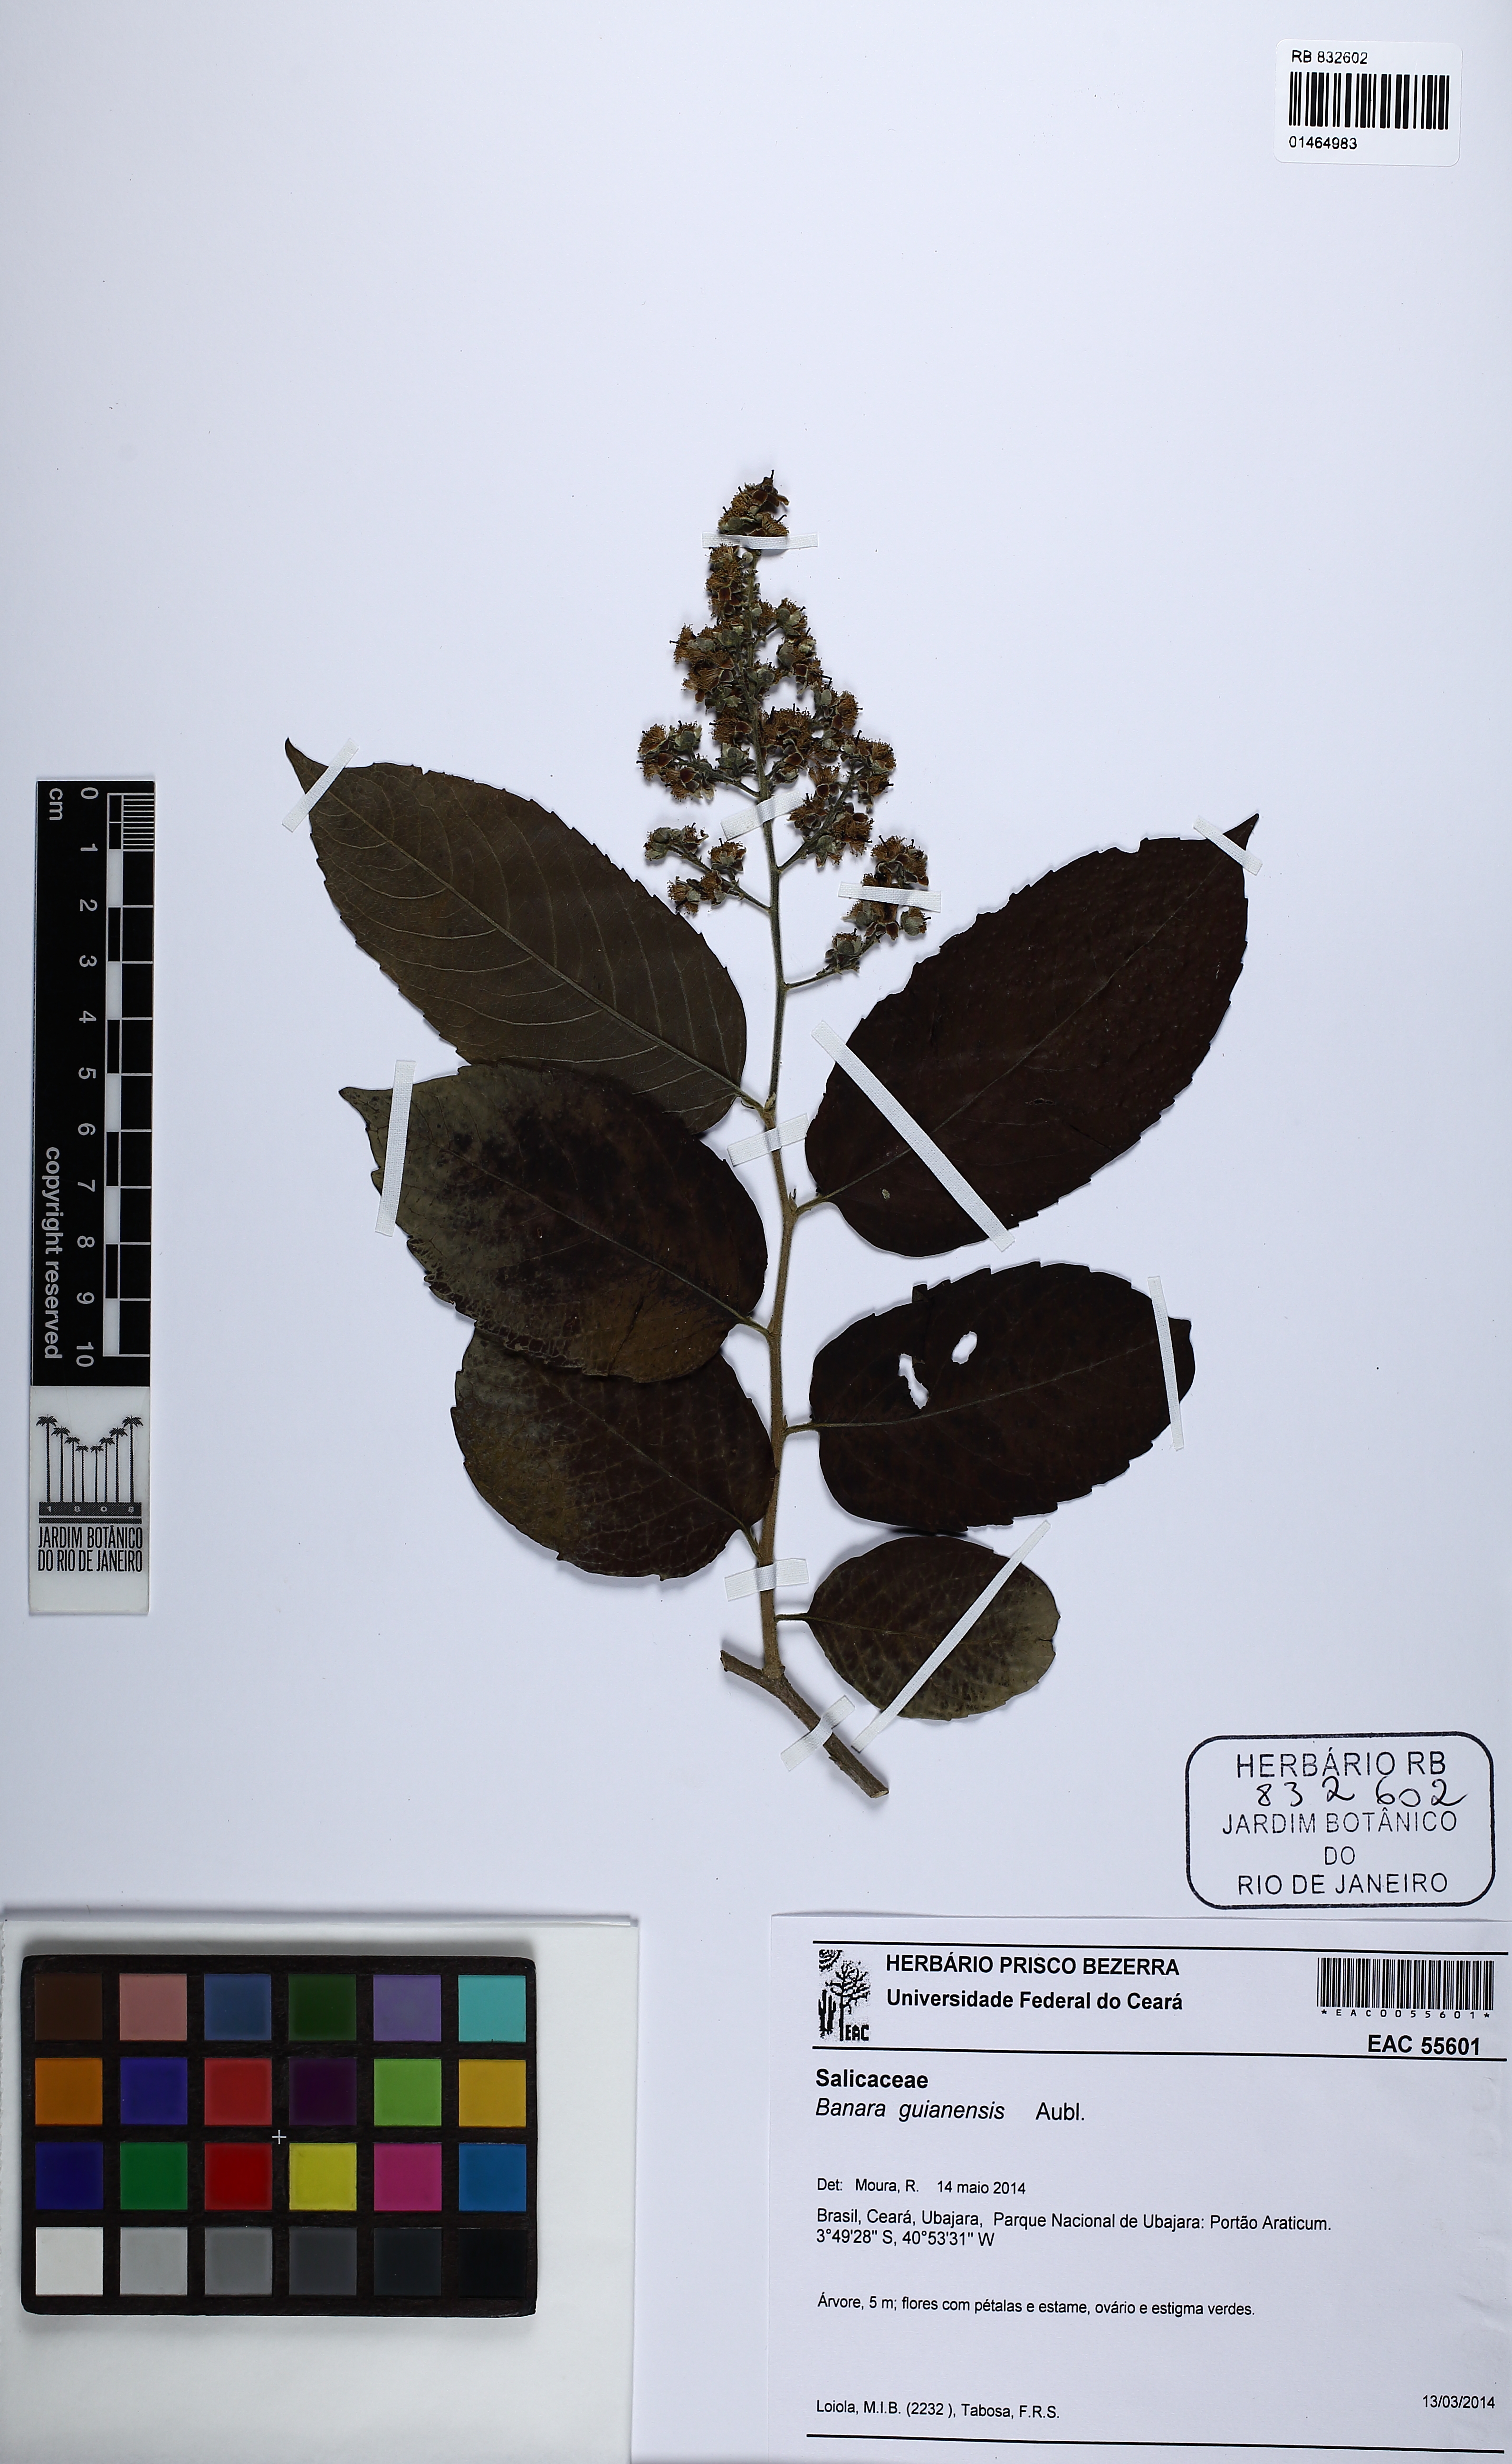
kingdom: Plantae
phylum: Tracheophyta
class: Magnoliopsida
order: Malpighiales
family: Salicaceae
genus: Banara
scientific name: Banara guianensis
